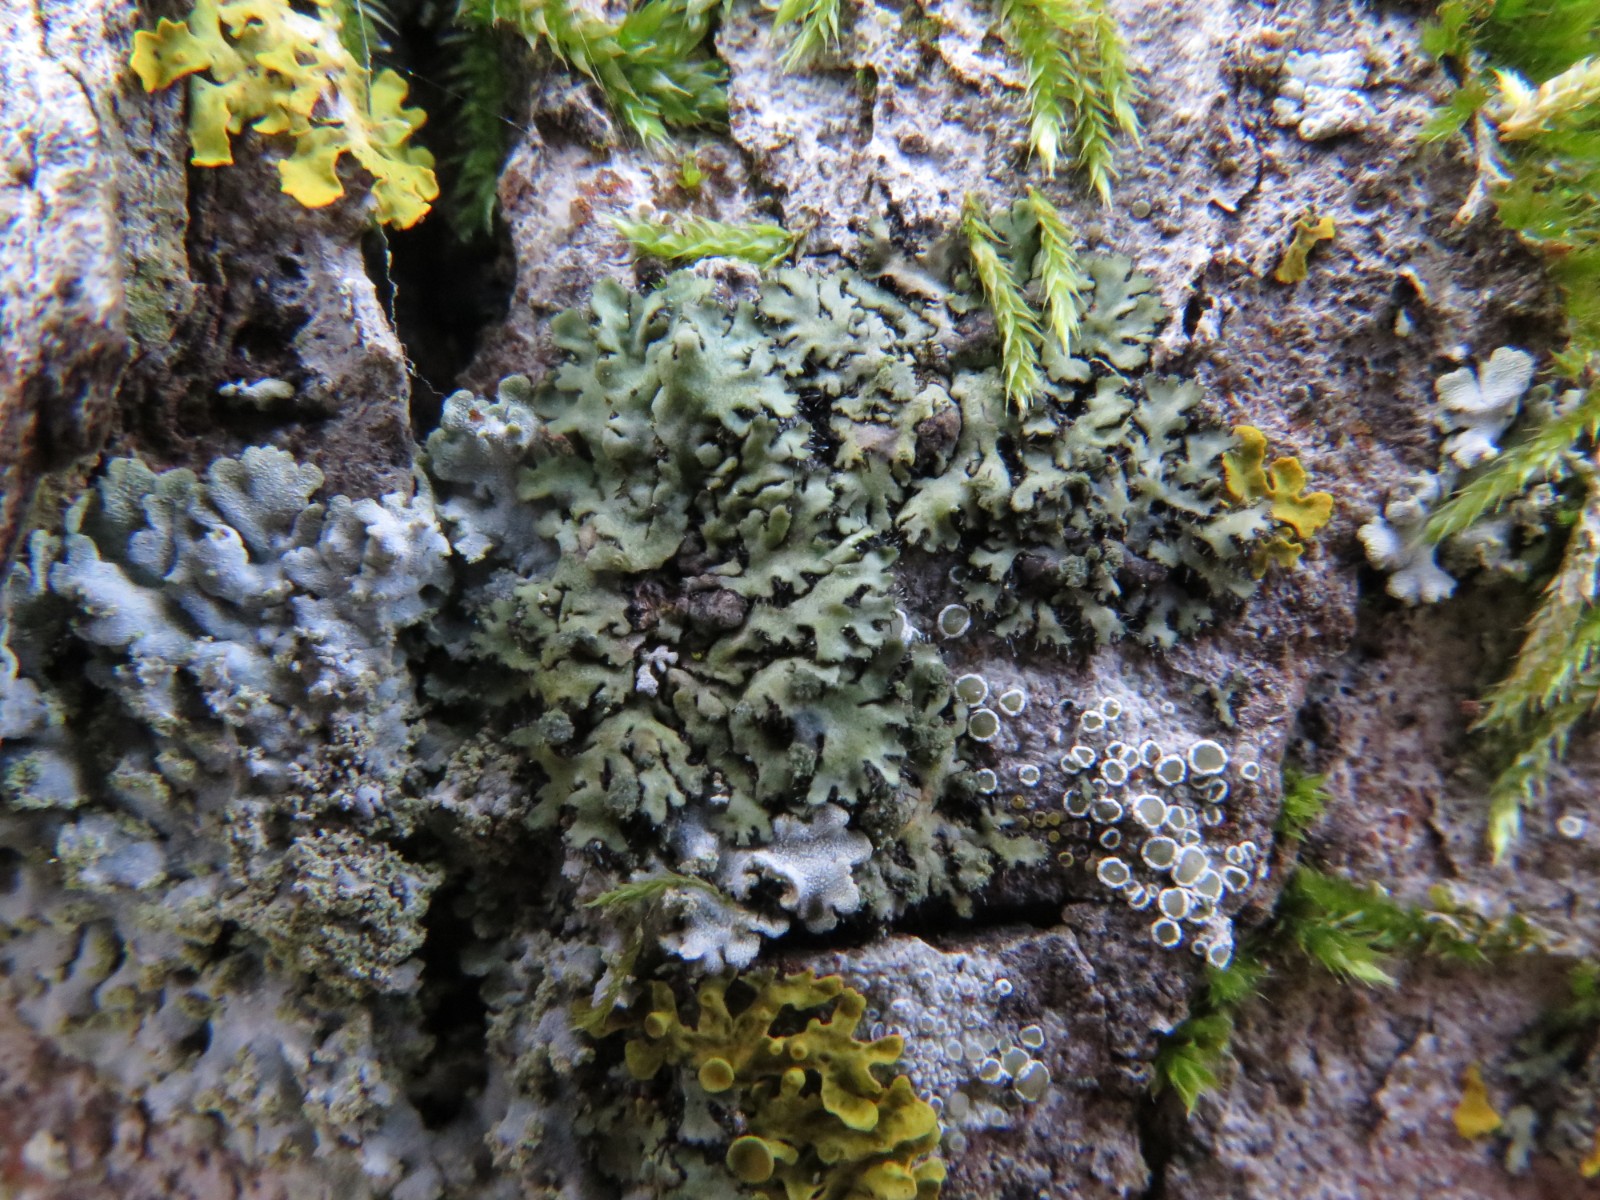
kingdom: Fungi
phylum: Ascomycota
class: Lecanoromycetes
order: Caliciales
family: Physciaceae
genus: Phaeophyscia
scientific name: Phaeophyscia orbicularis
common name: grågrøn rosetlav
